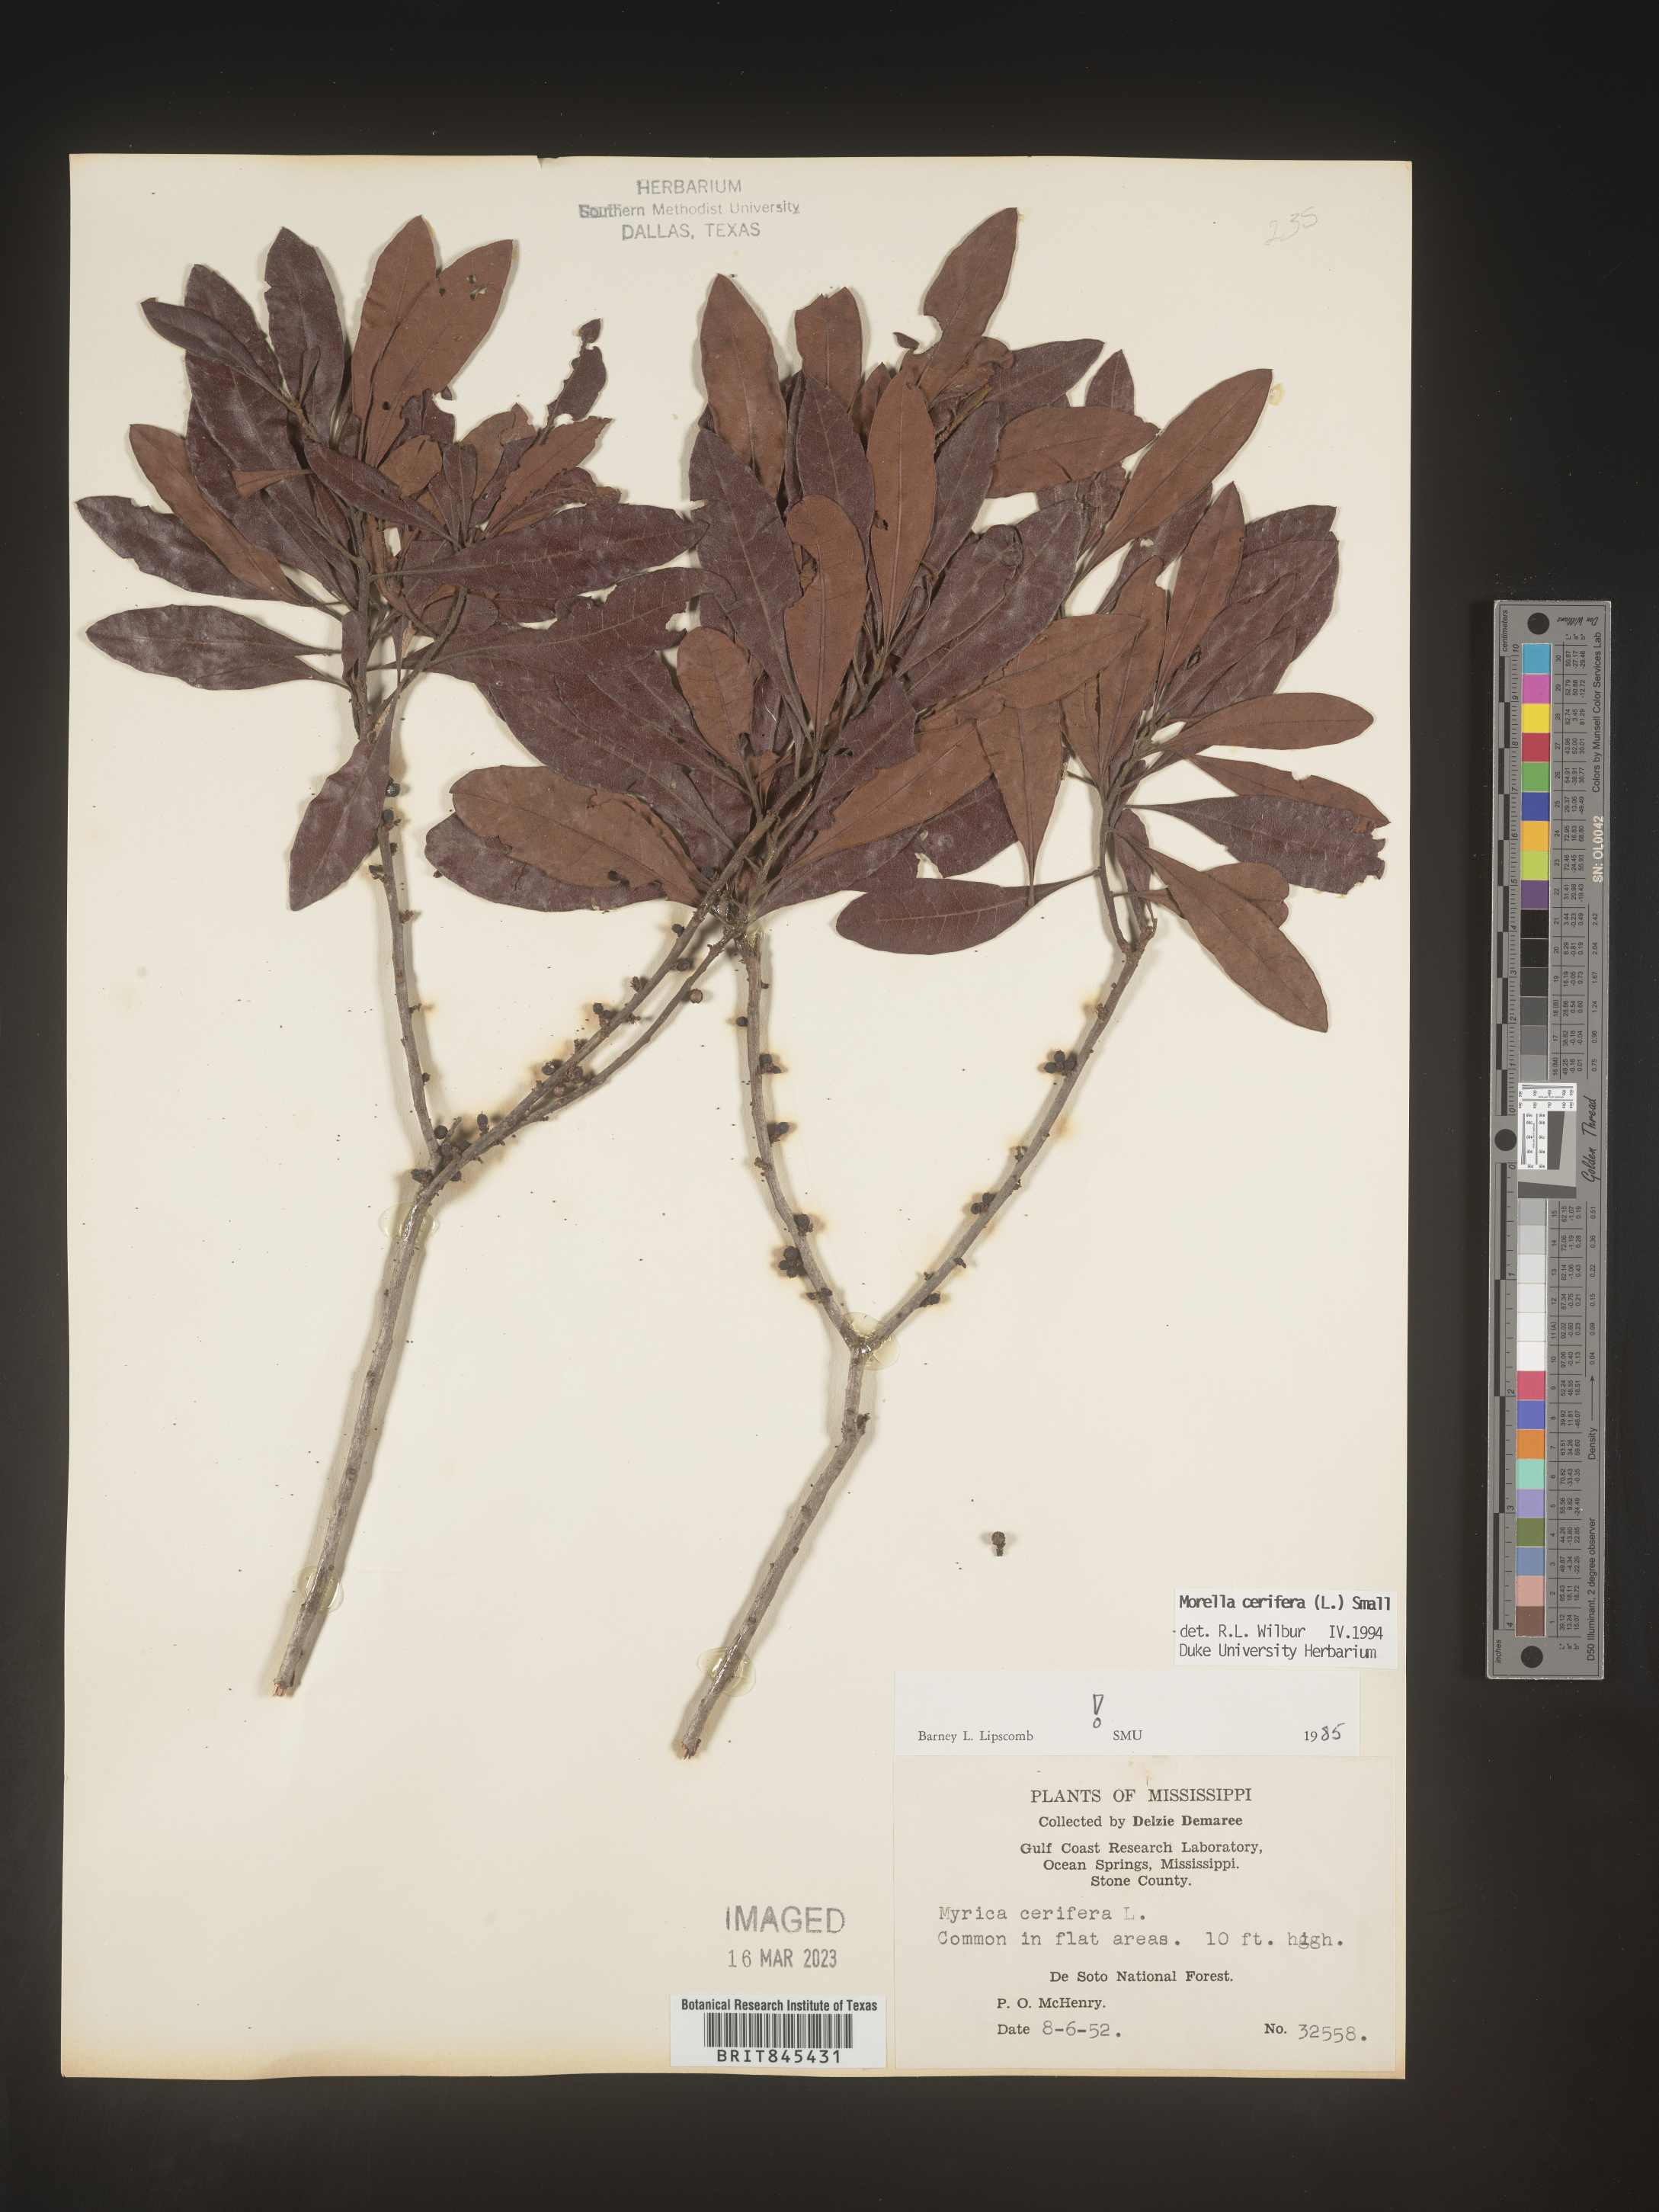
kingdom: Plantae
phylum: Tracheophyta
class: Magnoliopsida
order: Fagales
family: Myricaceae
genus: Morella
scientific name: Morella cerifera
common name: Wax myrtle
